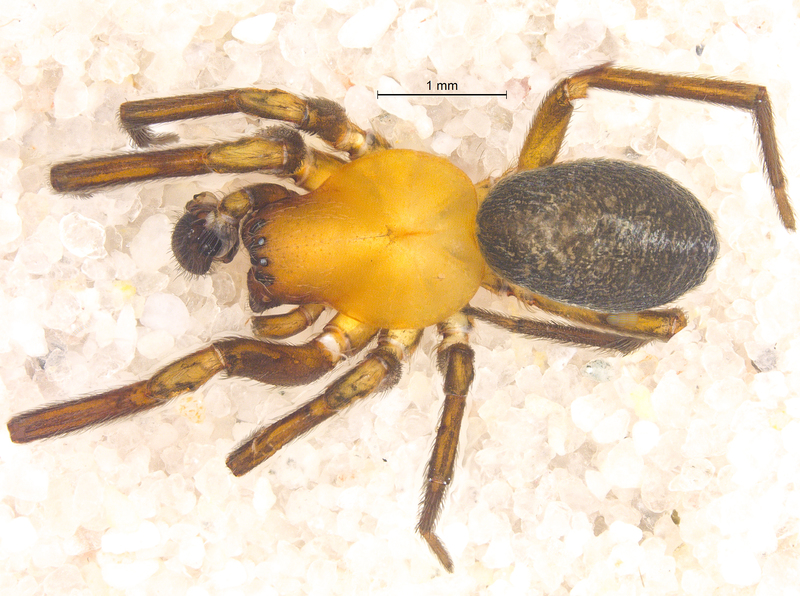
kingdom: Animalia
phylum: Arthropoda
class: Arachnida
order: Araneae
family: Titanoecidae
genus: Titanoeca
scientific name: Titanoeca spominima
